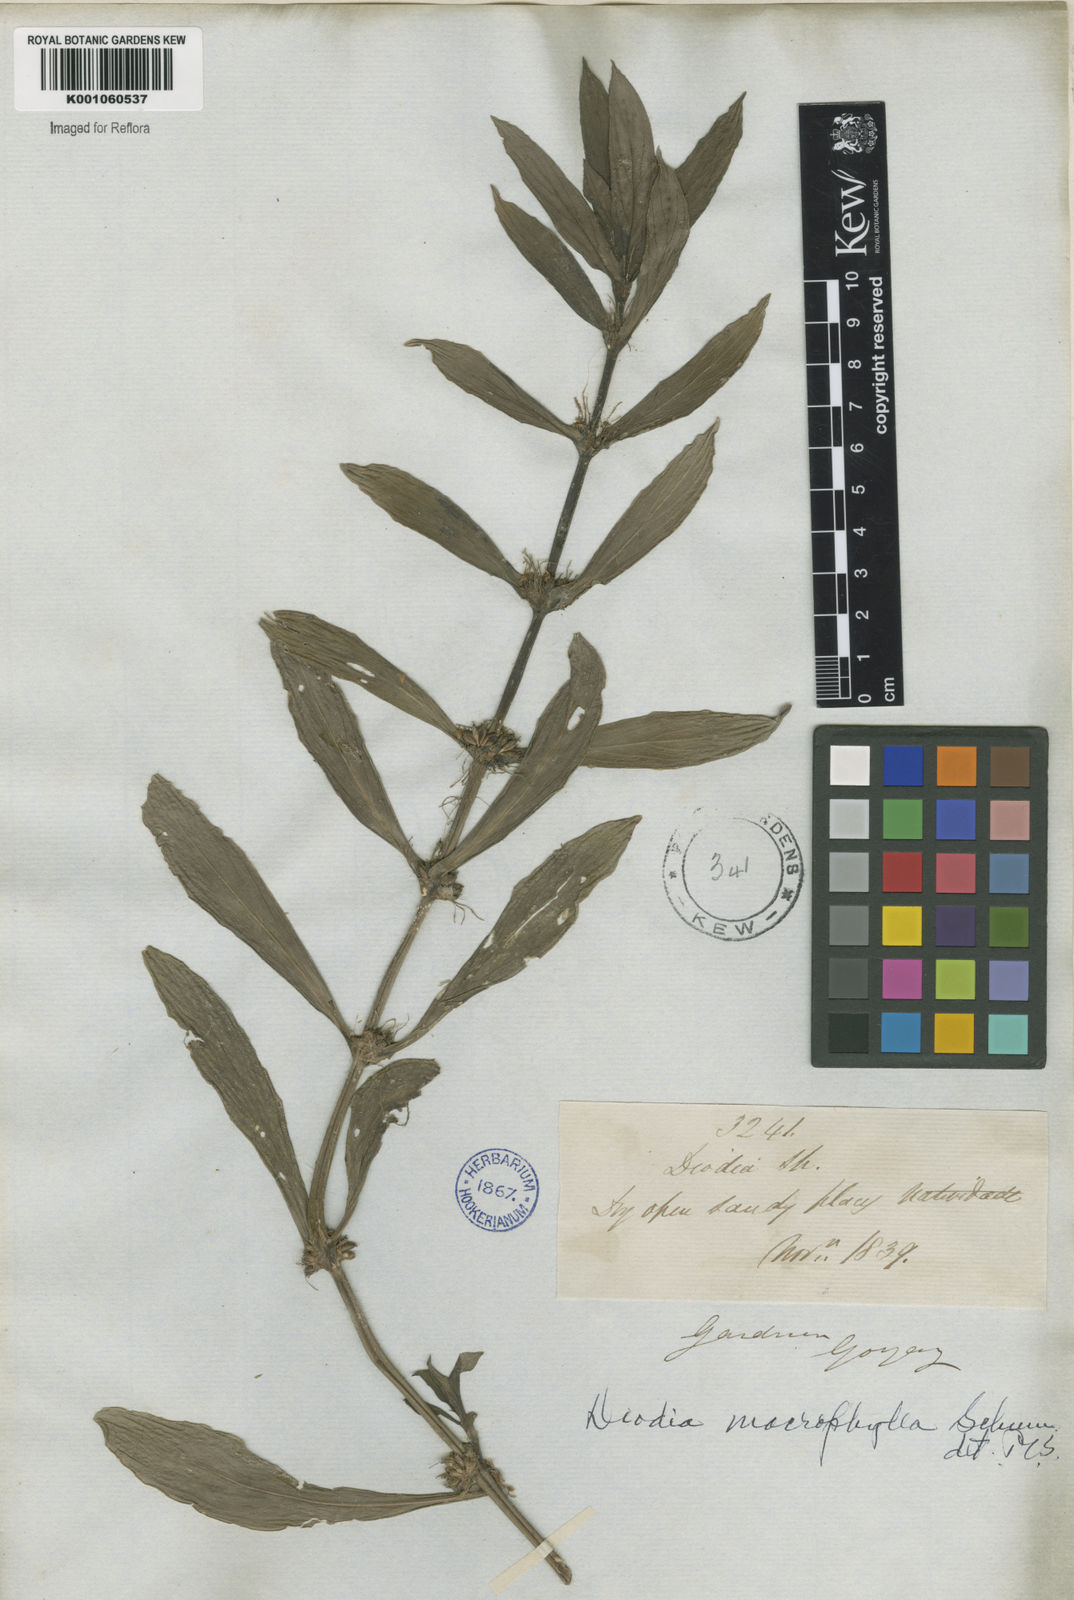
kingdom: Plantae
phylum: Tracheophyta
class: Magnoliopsida
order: Gentianales
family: Rubiaceae
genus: Diodia
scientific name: Diodia macrophylla
